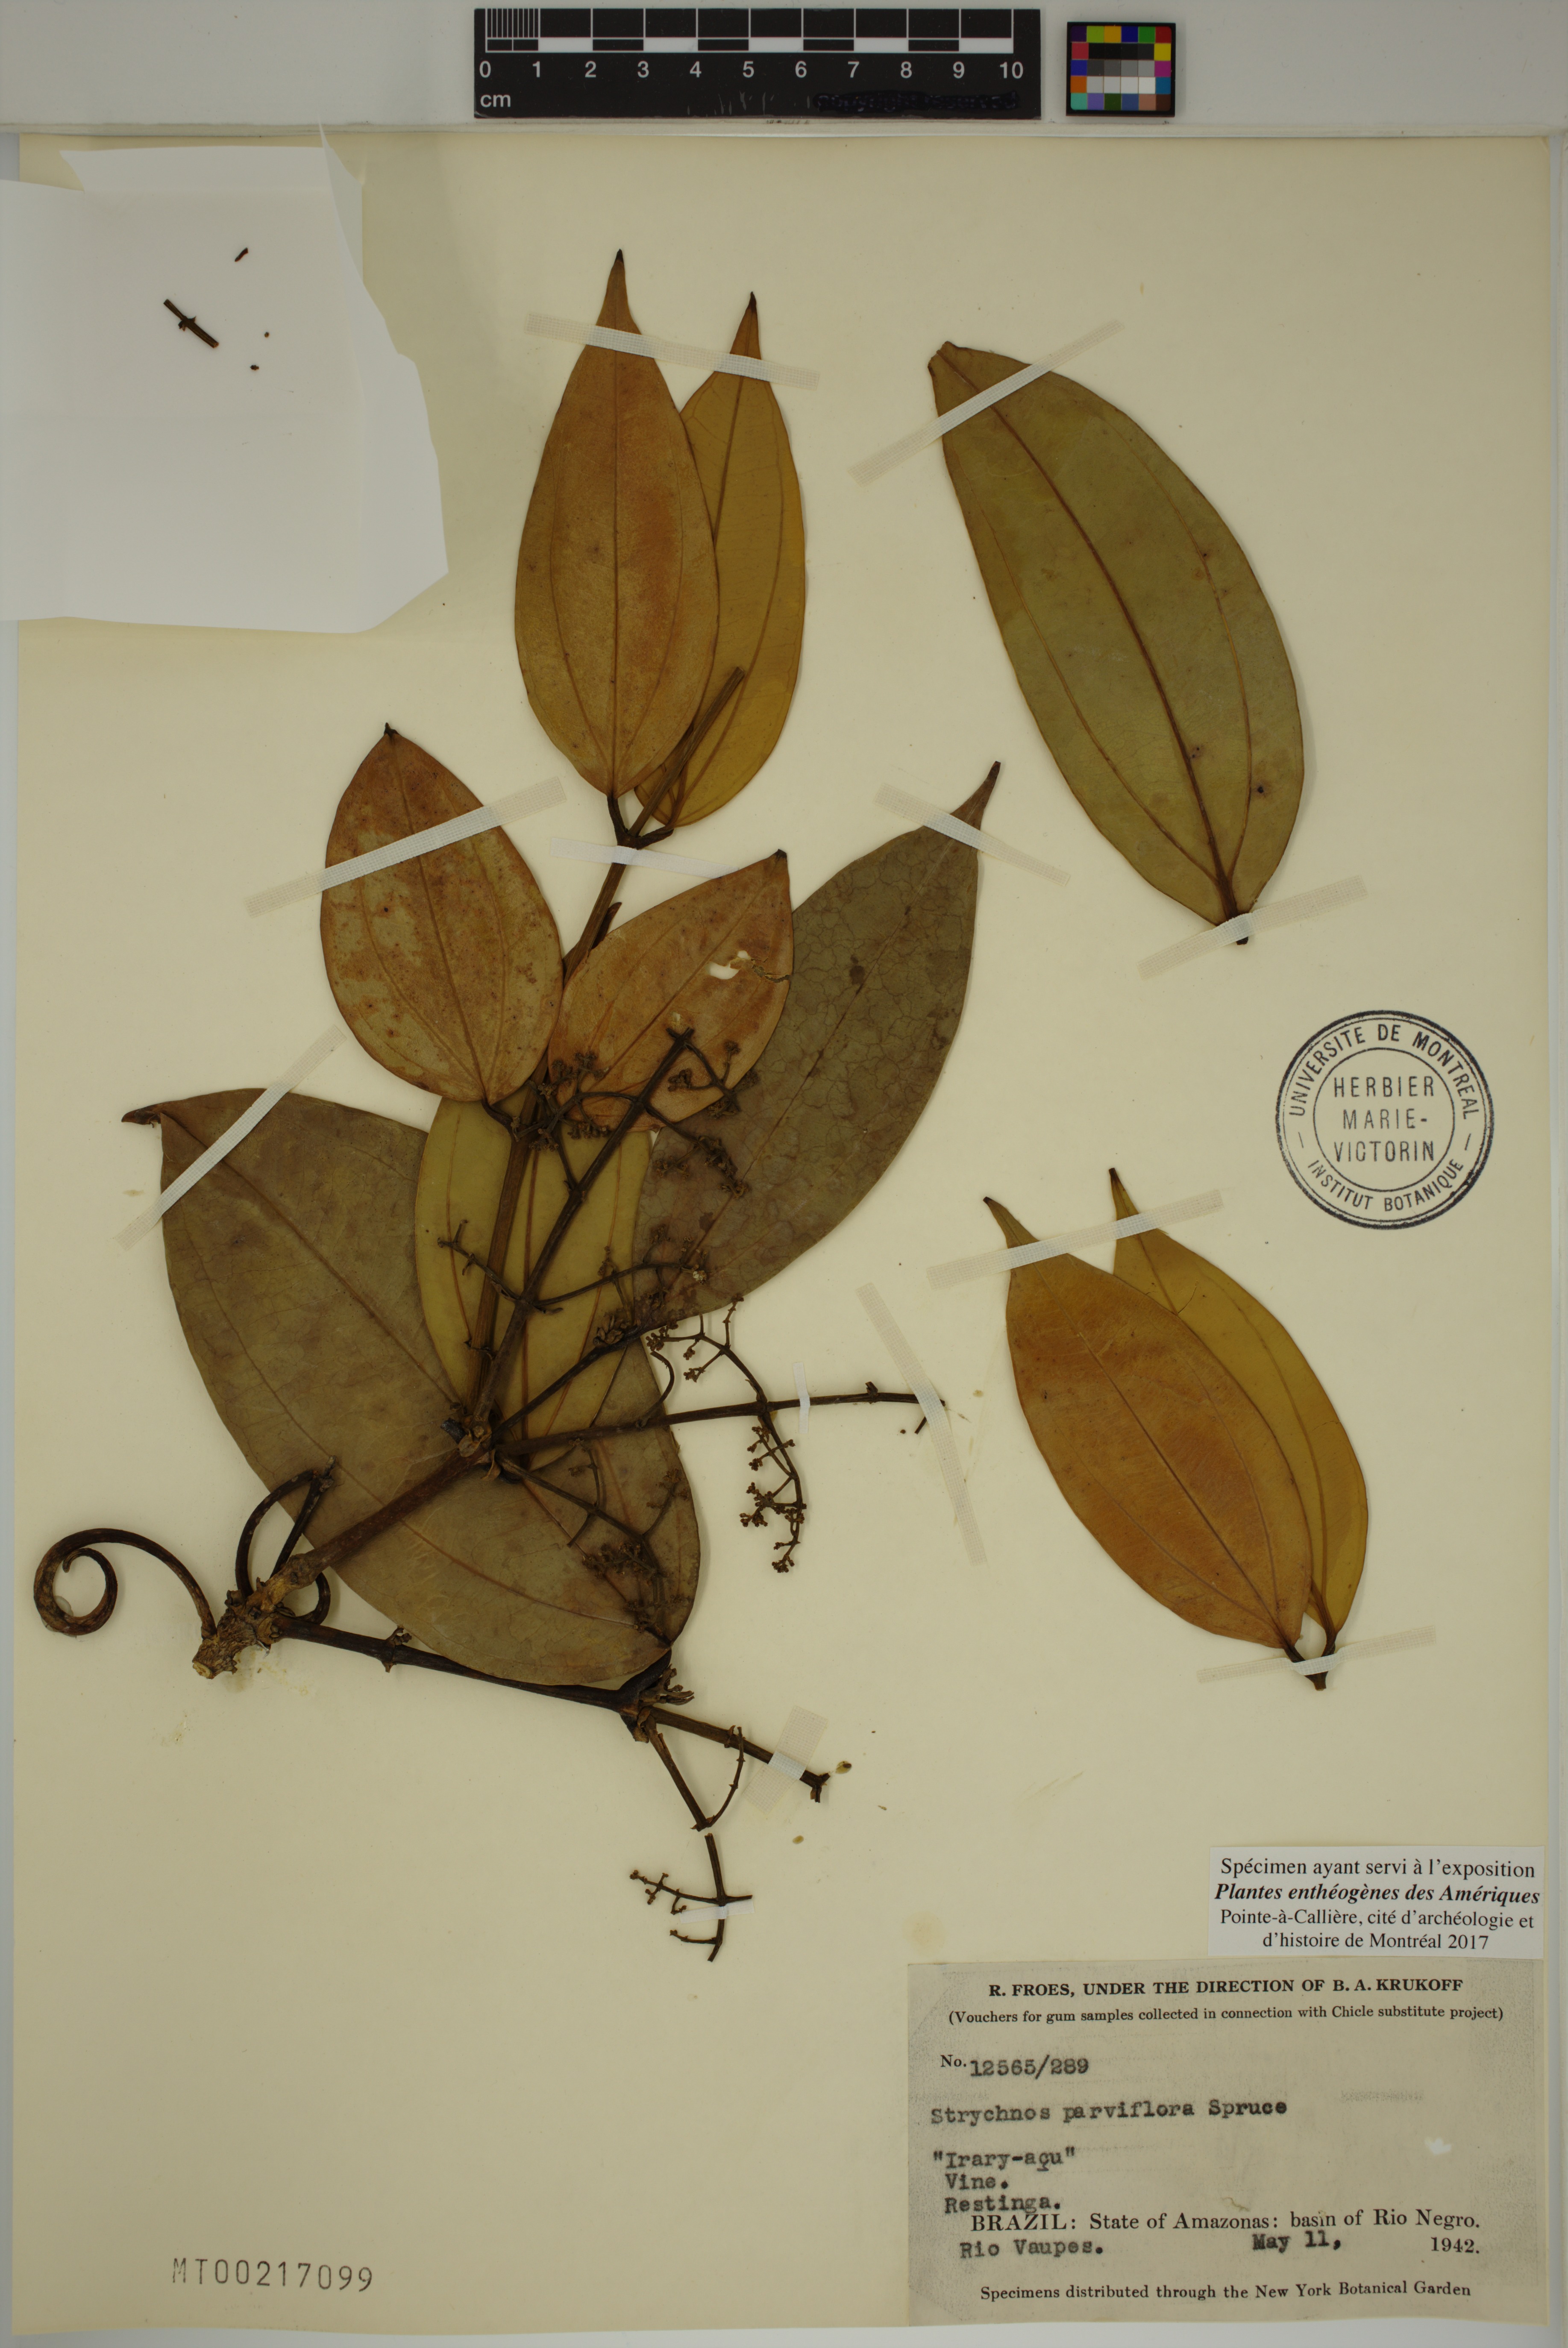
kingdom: Plantae
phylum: Tracheophyta
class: Magnoliopsida
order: Gentianales
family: Loganiaceae
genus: Strychnos
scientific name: Strychnos parviflora
